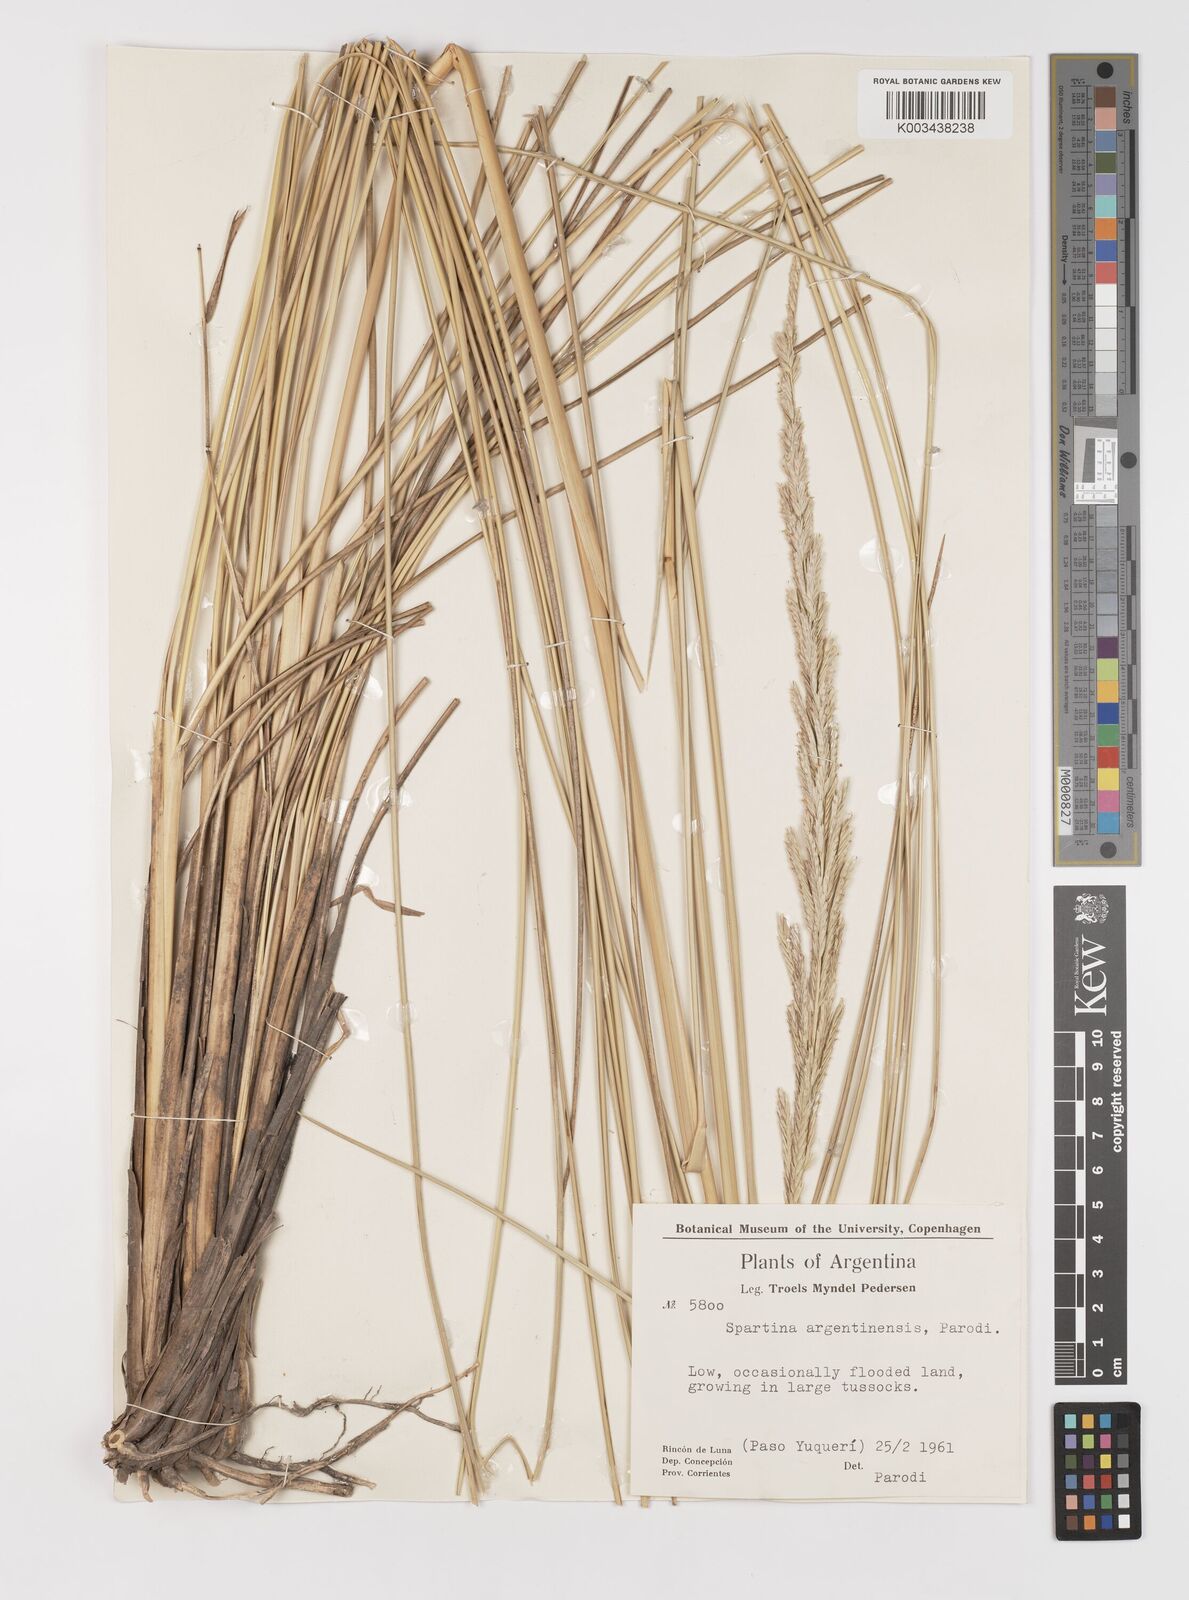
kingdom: Plantae
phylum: Tracheophyta
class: Liliopsida
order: Poales
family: Poaceae
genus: Sporobolus
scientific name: Sporobolus spartinae
